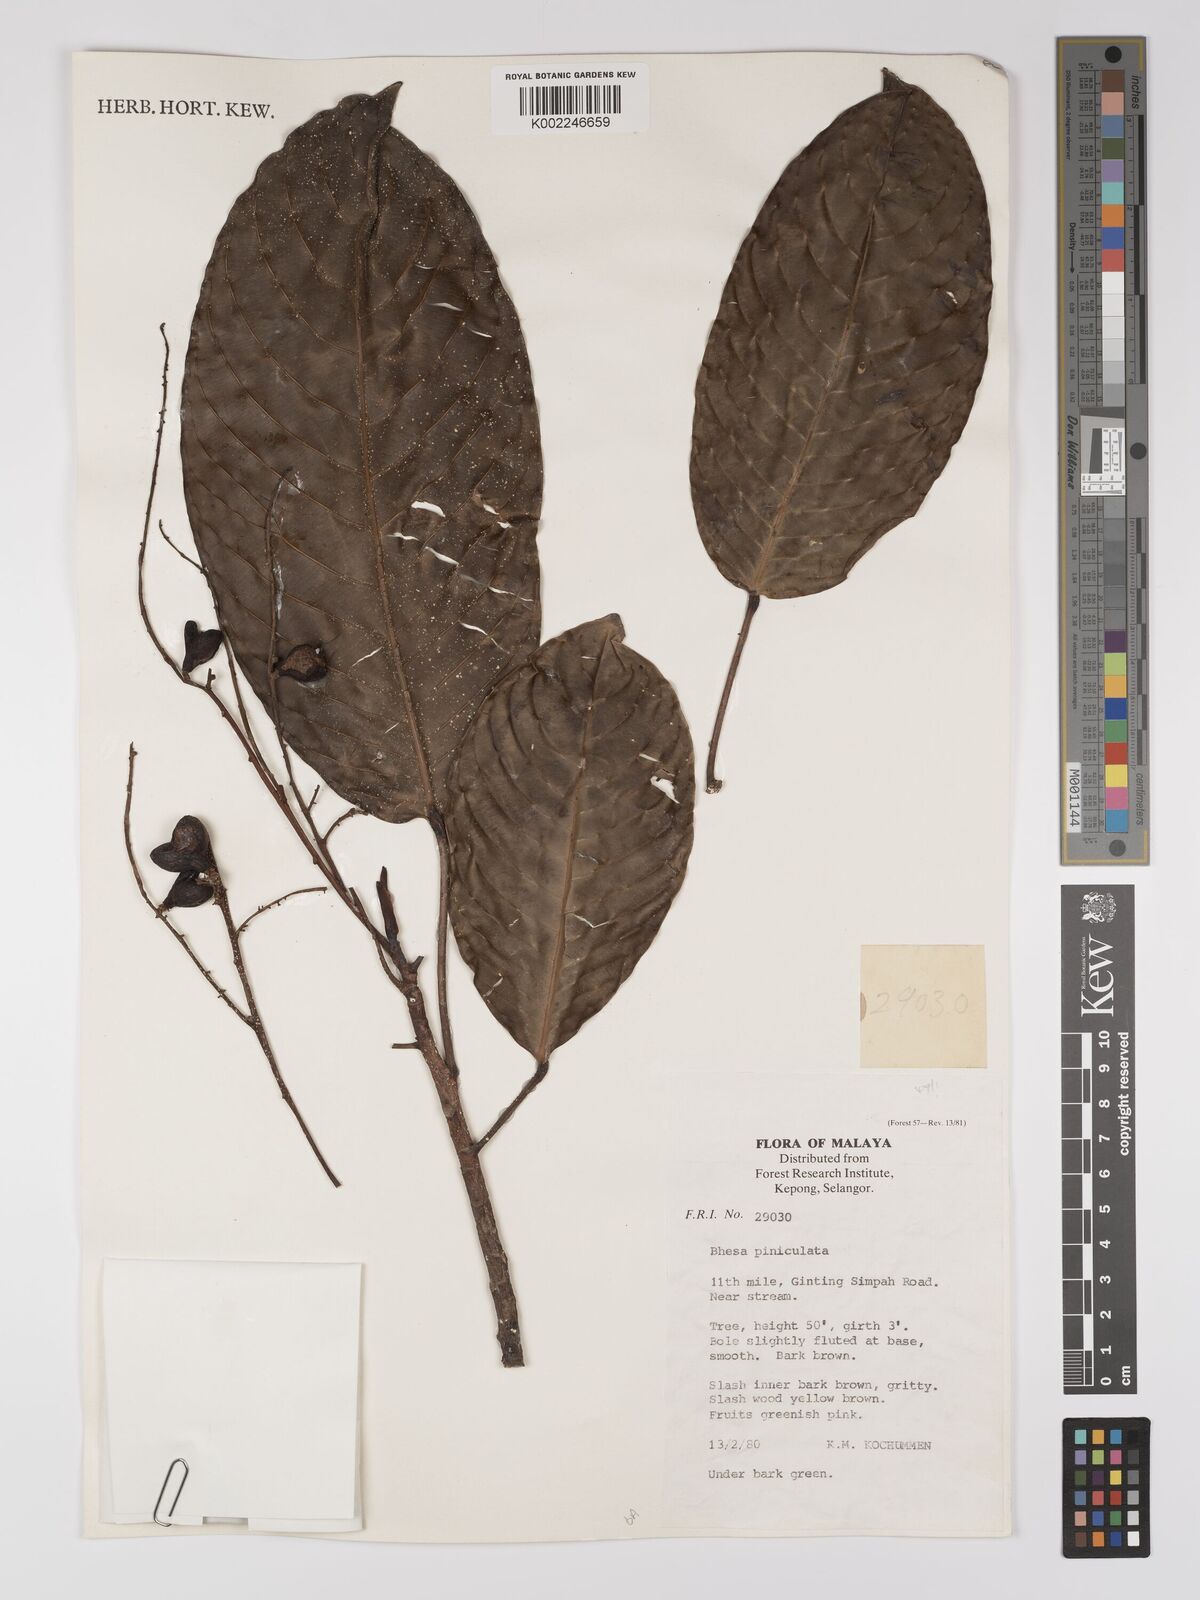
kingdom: Plantae
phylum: Tracheophyta
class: Magnoliopsida
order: Malpighiales
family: Centroplacaceae
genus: Bhesa
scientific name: Bhesa paniculata
